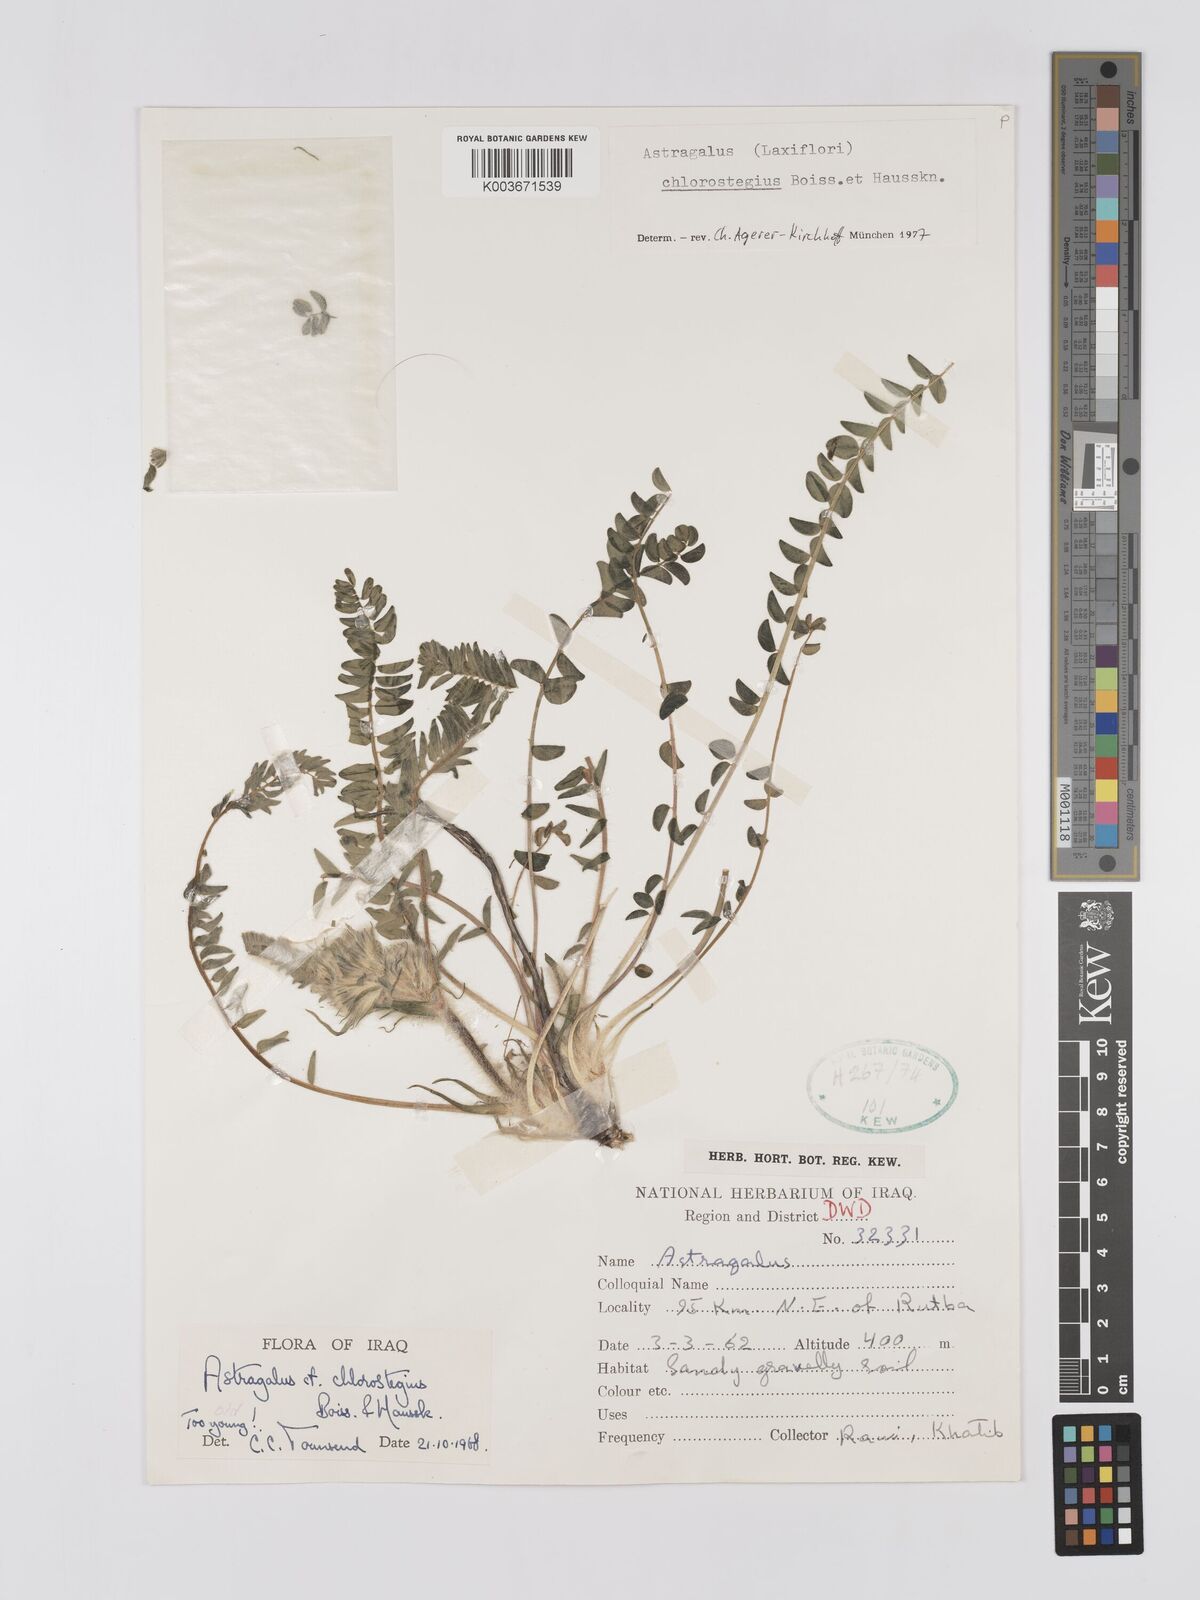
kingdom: Plantae
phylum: Tracheophyta
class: Magnoliopsida
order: Fabales
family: Fabaceae
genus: Astragalus
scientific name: Astragalus chlorostegius
